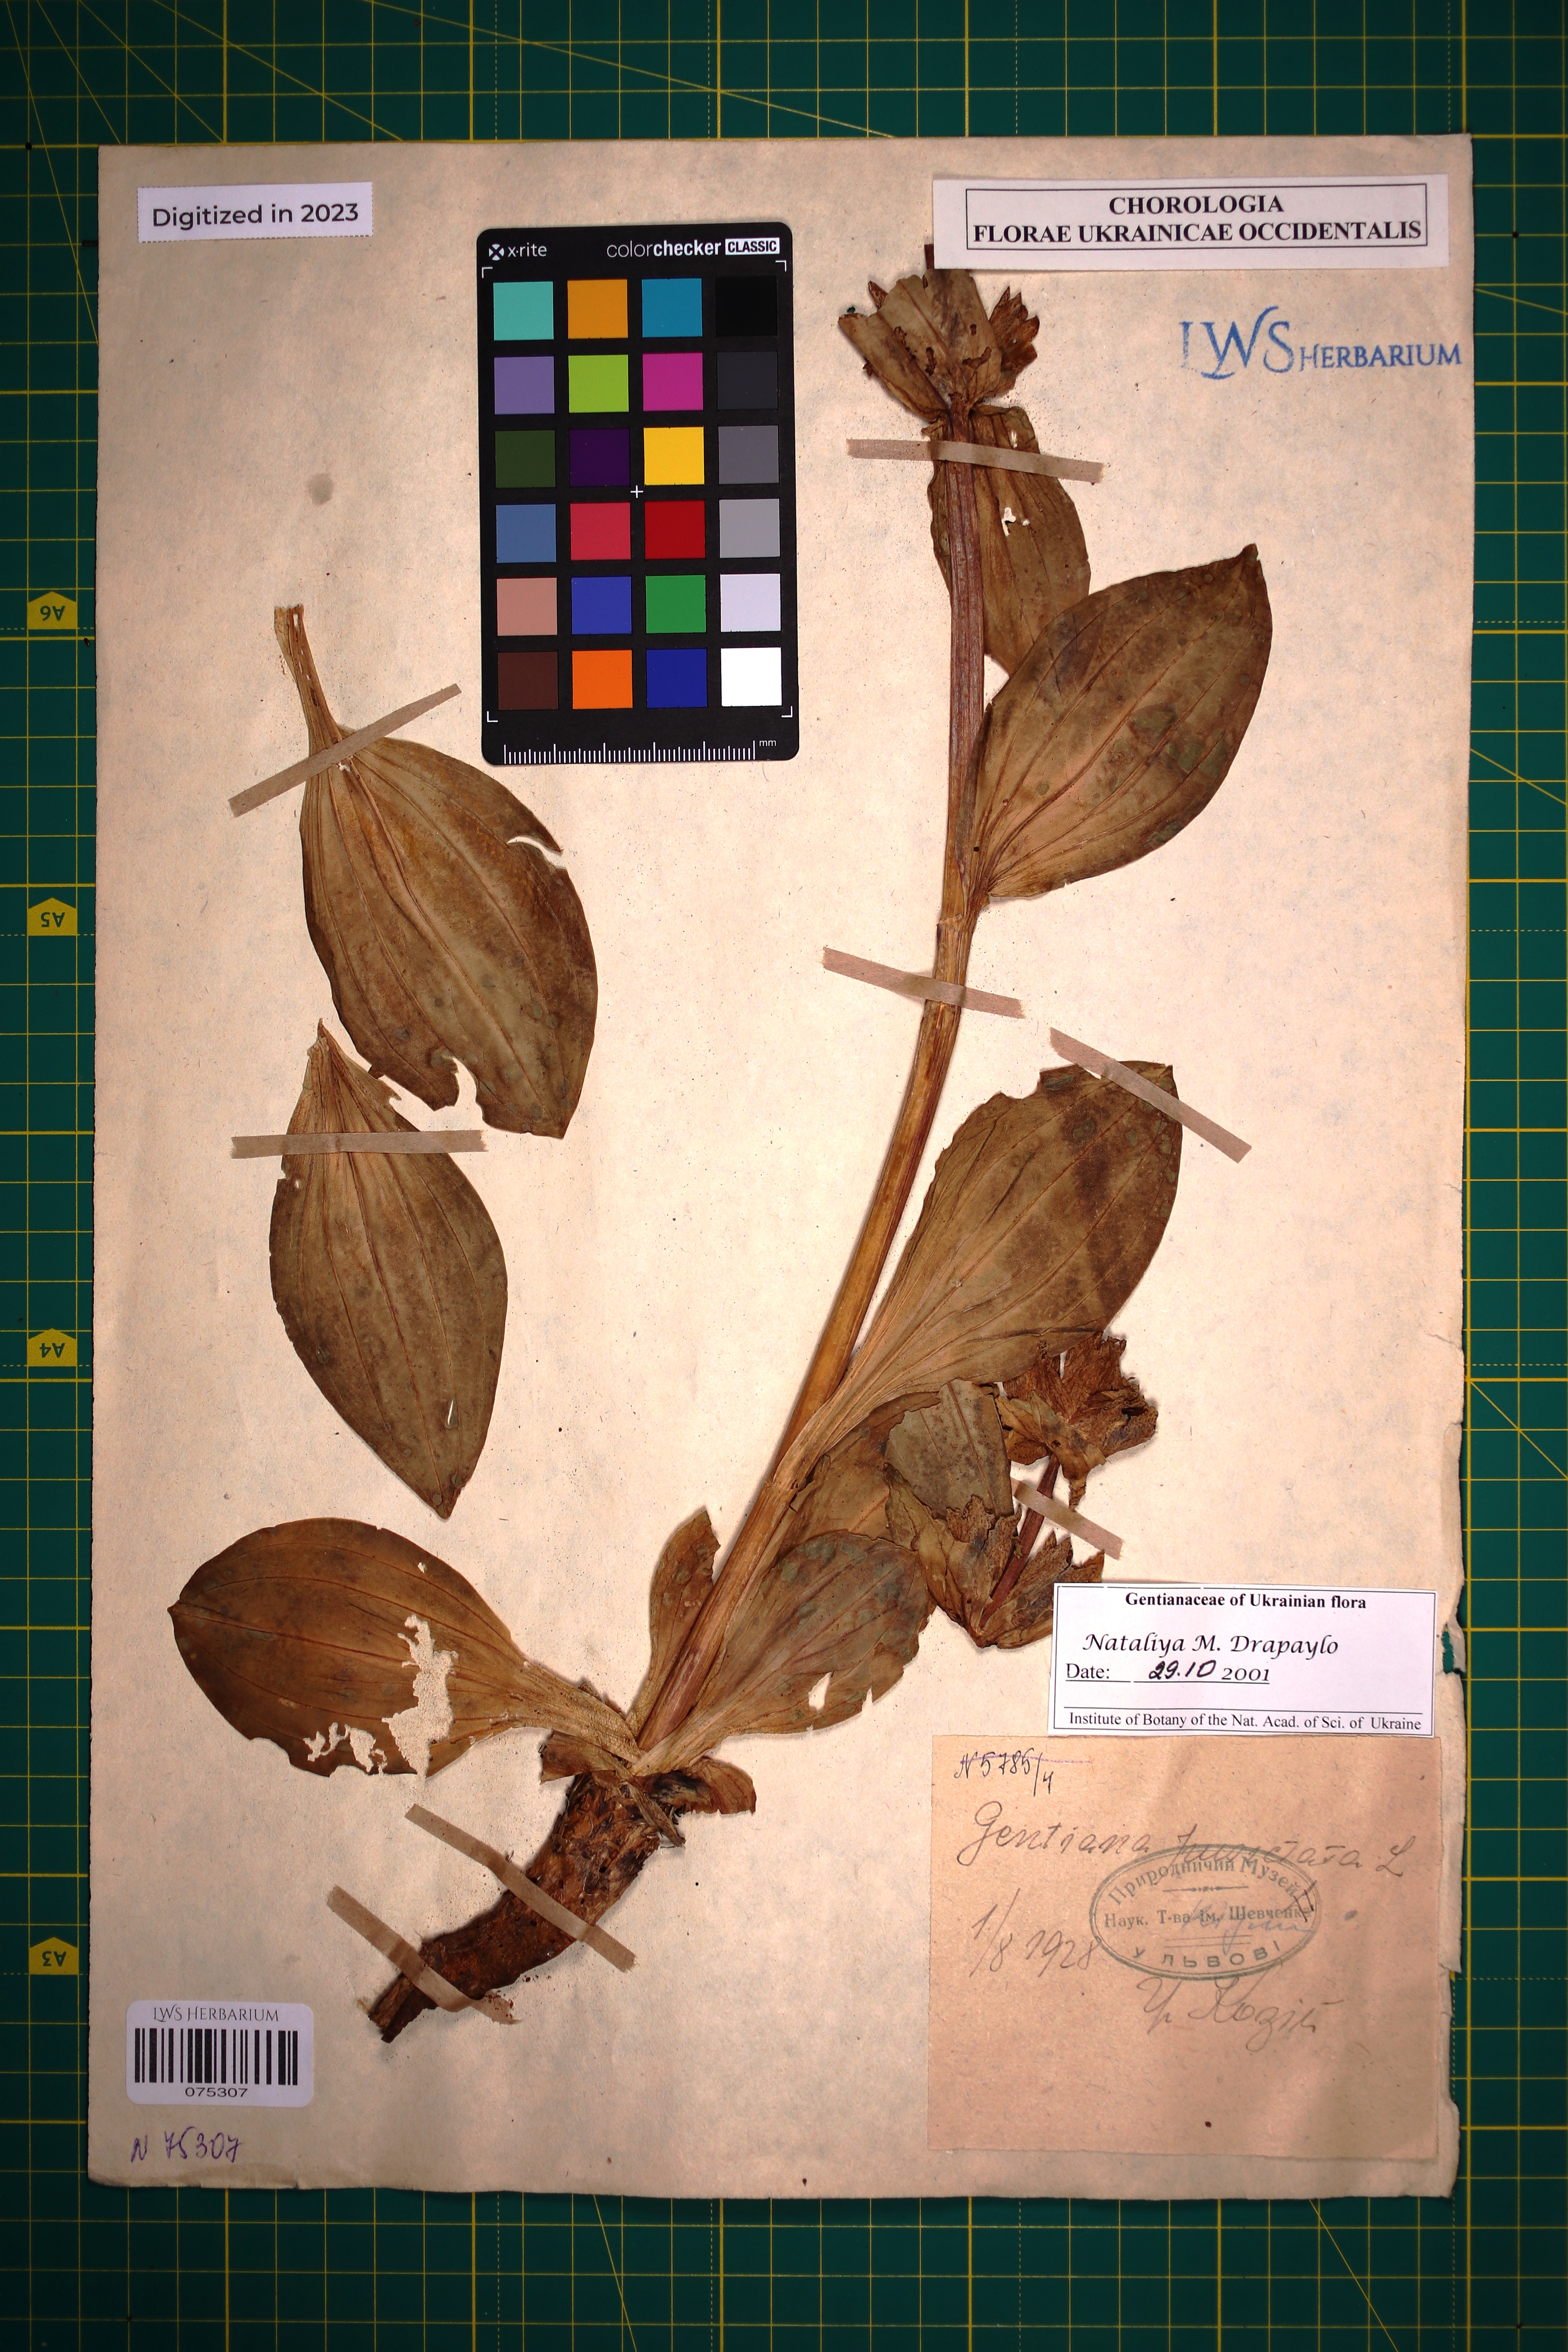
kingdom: Plantae
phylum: Tracheophyta
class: Magnoliopsida
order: Gentianales
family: Gentianaceae
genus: Gentiana
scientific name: Gentiana punctata
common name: Spotted gentian
